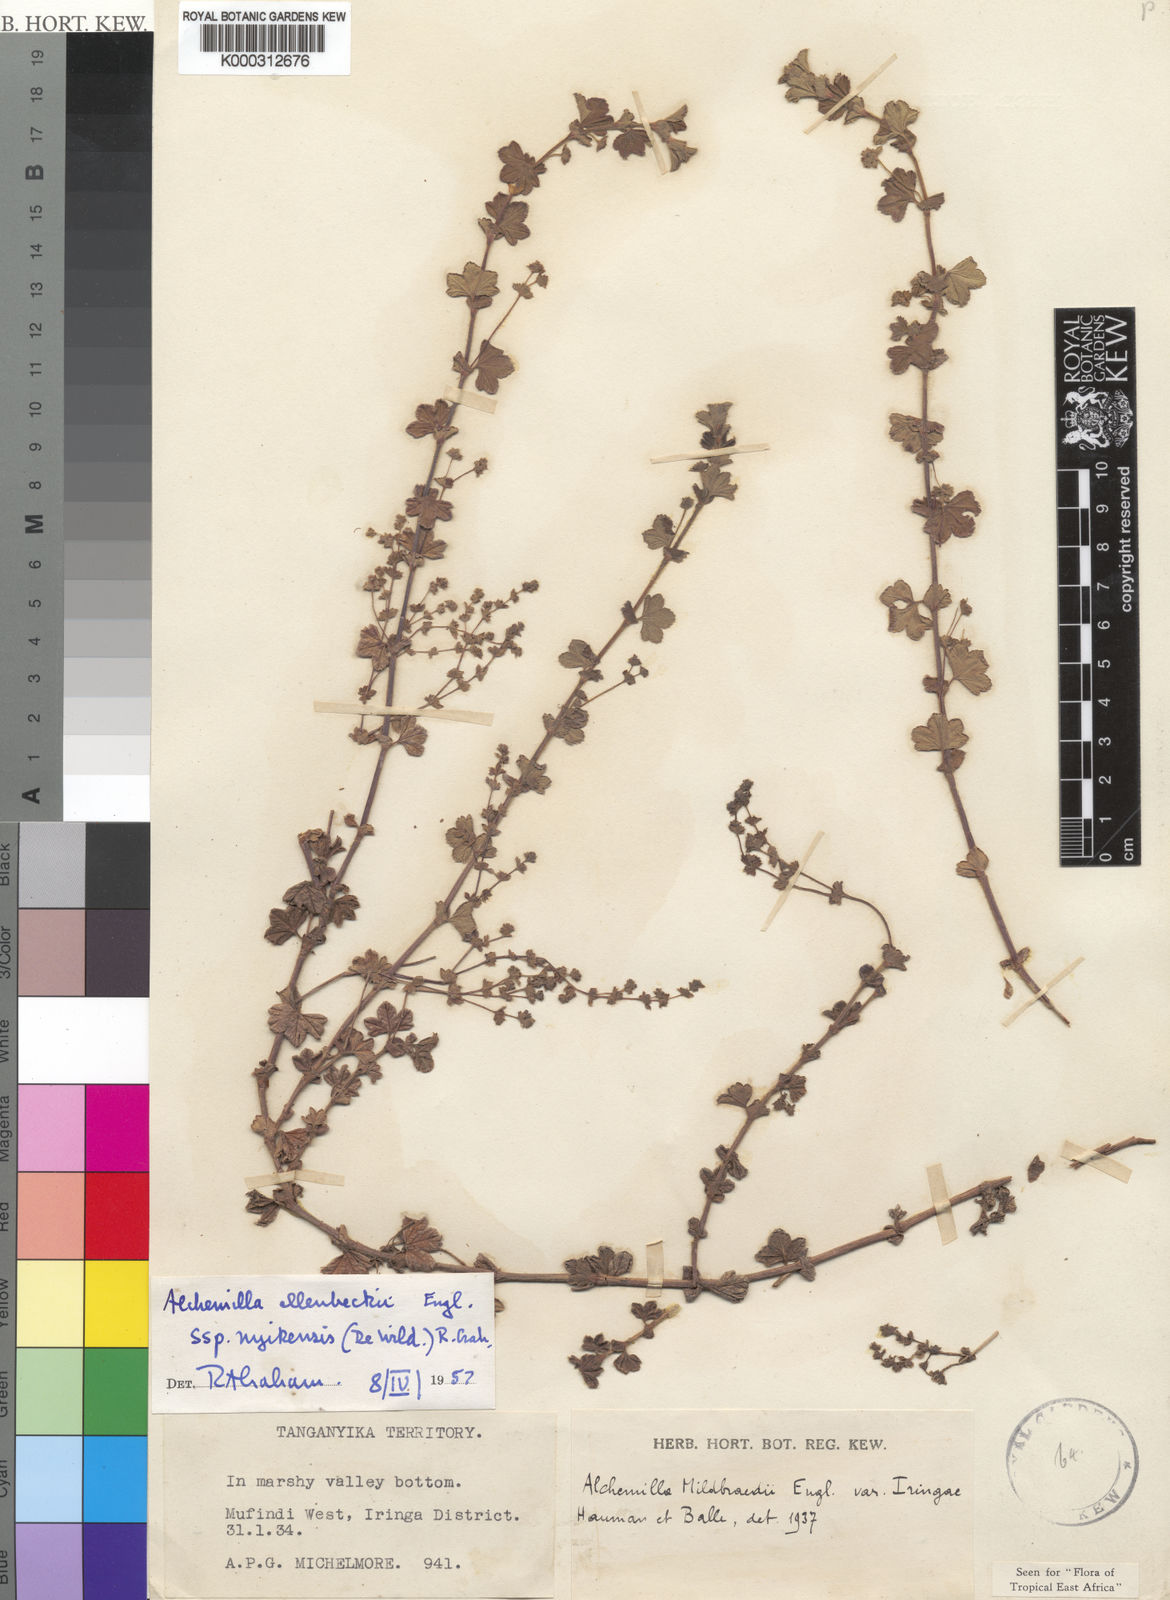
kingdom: Plantae
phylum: Tracheophyta
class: Magnoliopsida
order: Rosales
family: Rosaceae
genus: Alchemilla
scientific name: Alchemilla ellenbeckii
